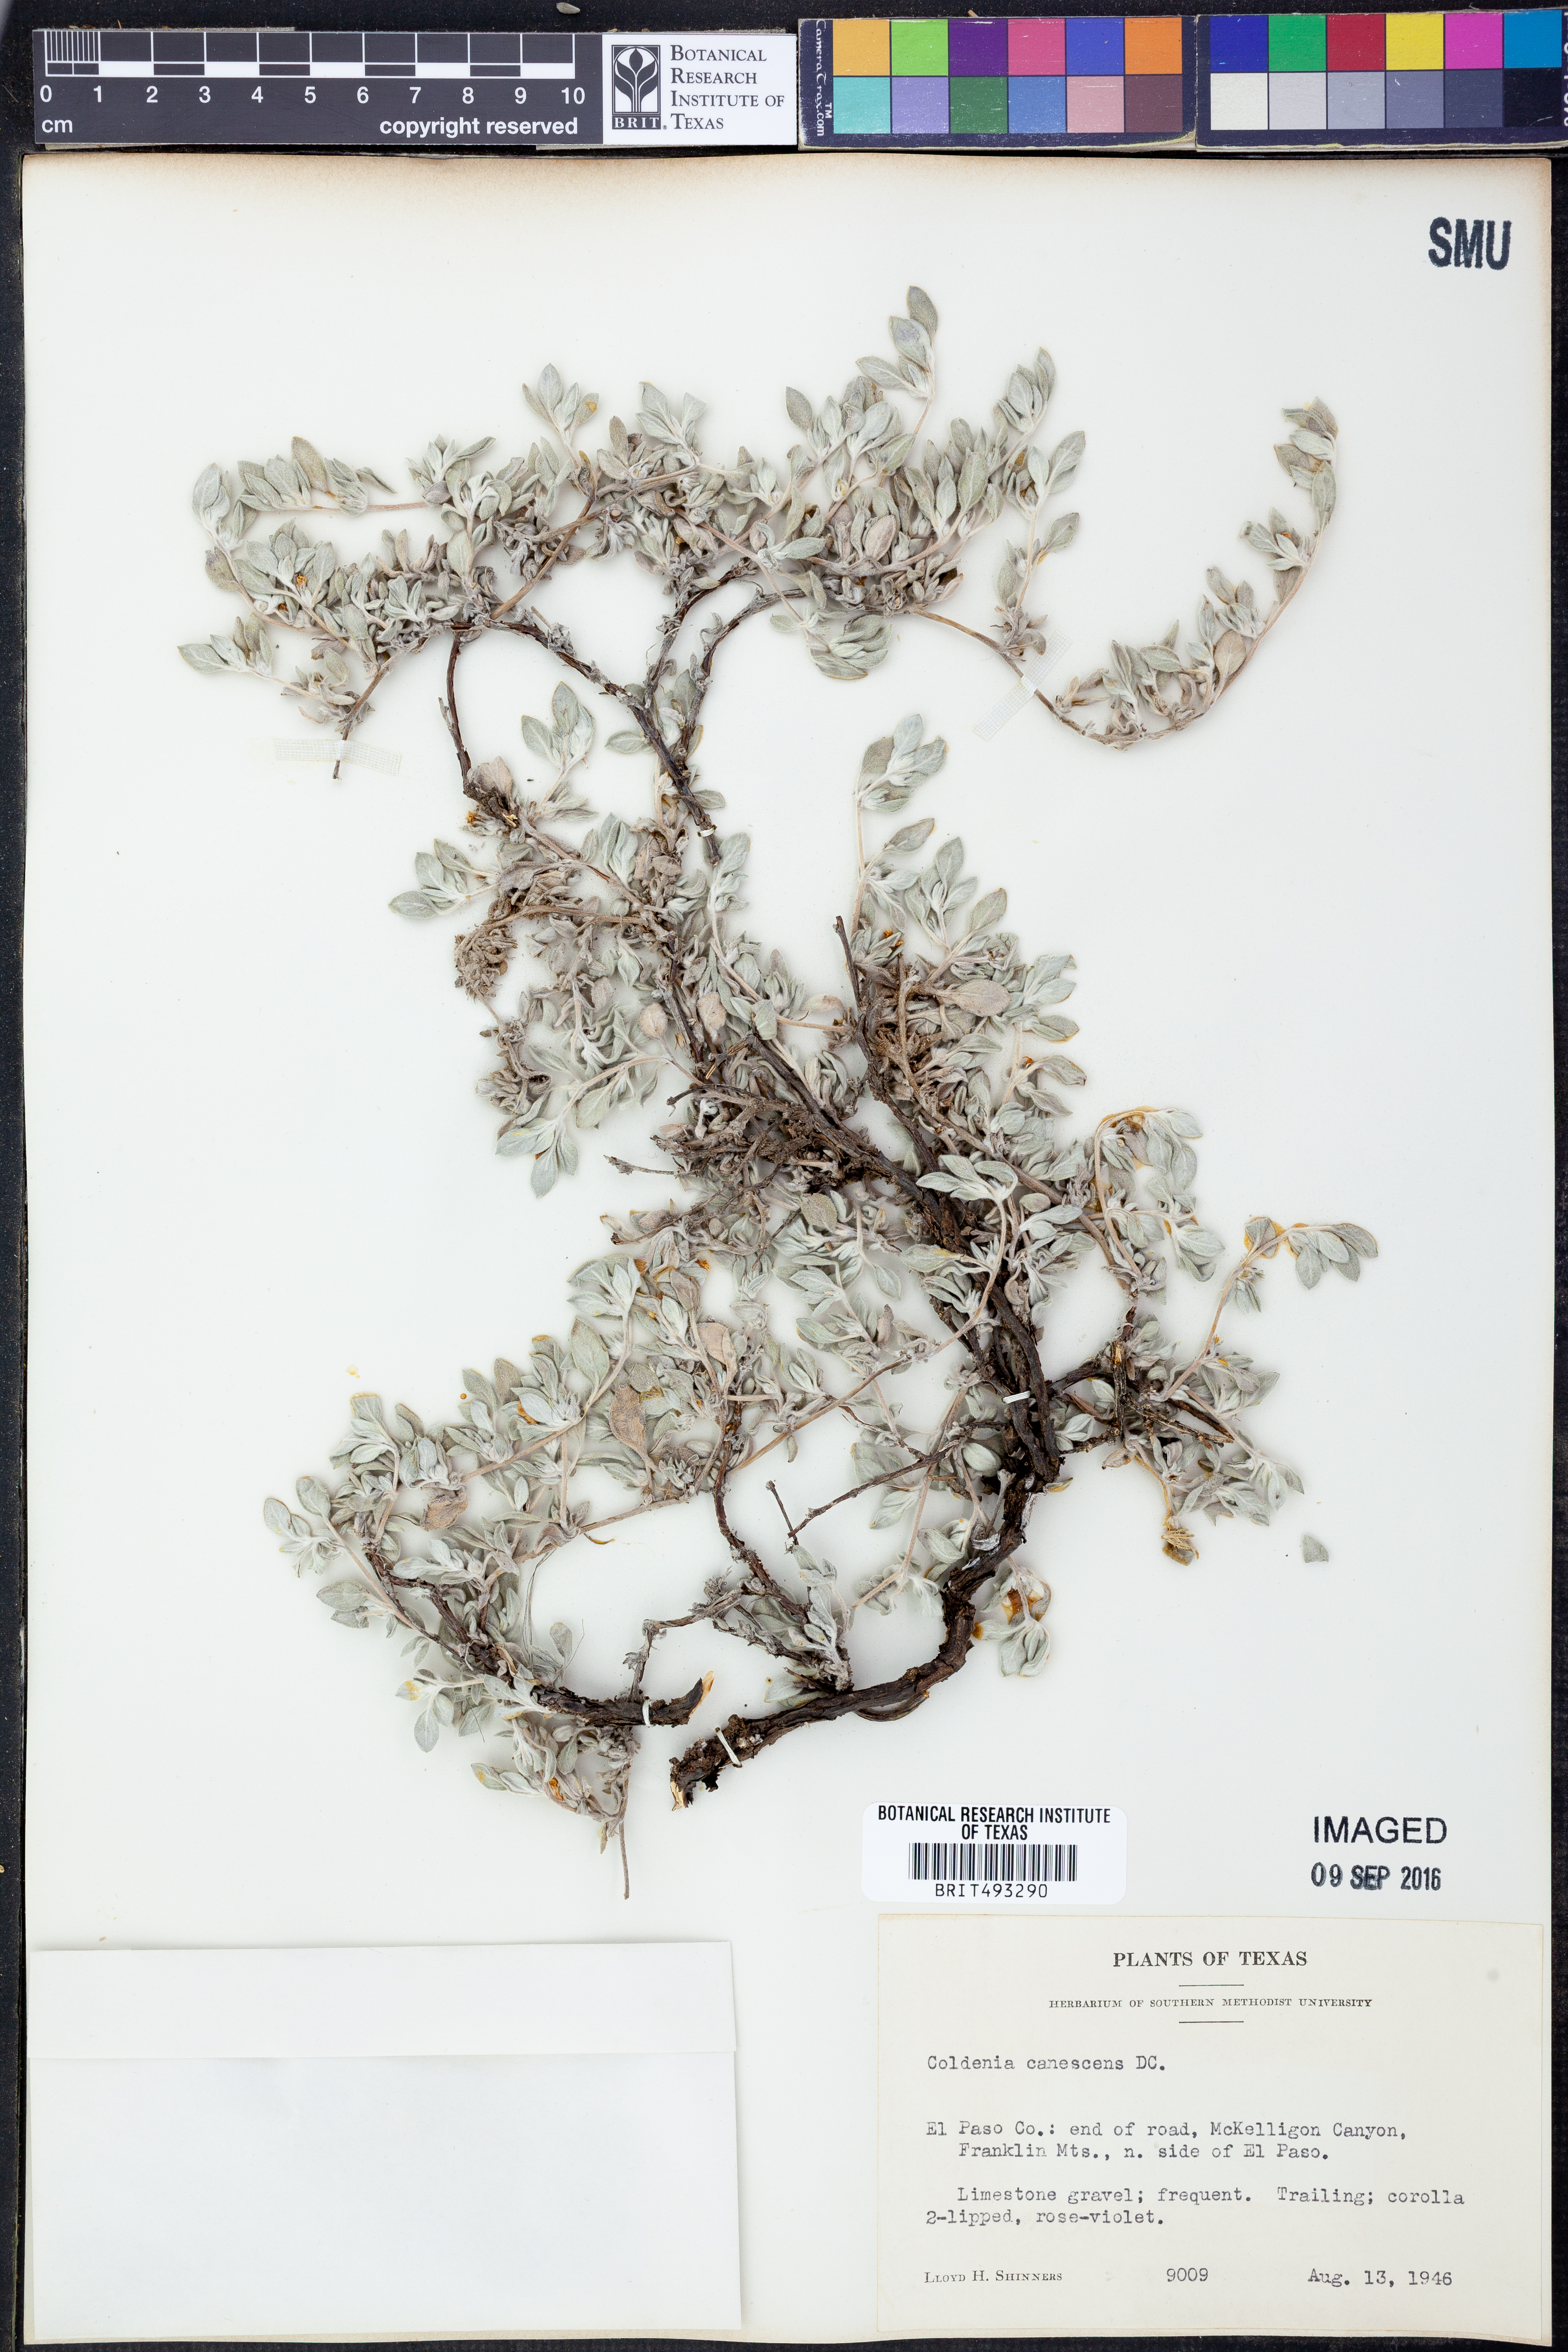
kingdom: Plantae
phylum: Tracheophyta
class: Magnoliopsida
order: Boraginales
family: Ehretiaceae
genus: Tiquilia
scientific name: Tiquilia canescens
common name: Hairy tiquilia
